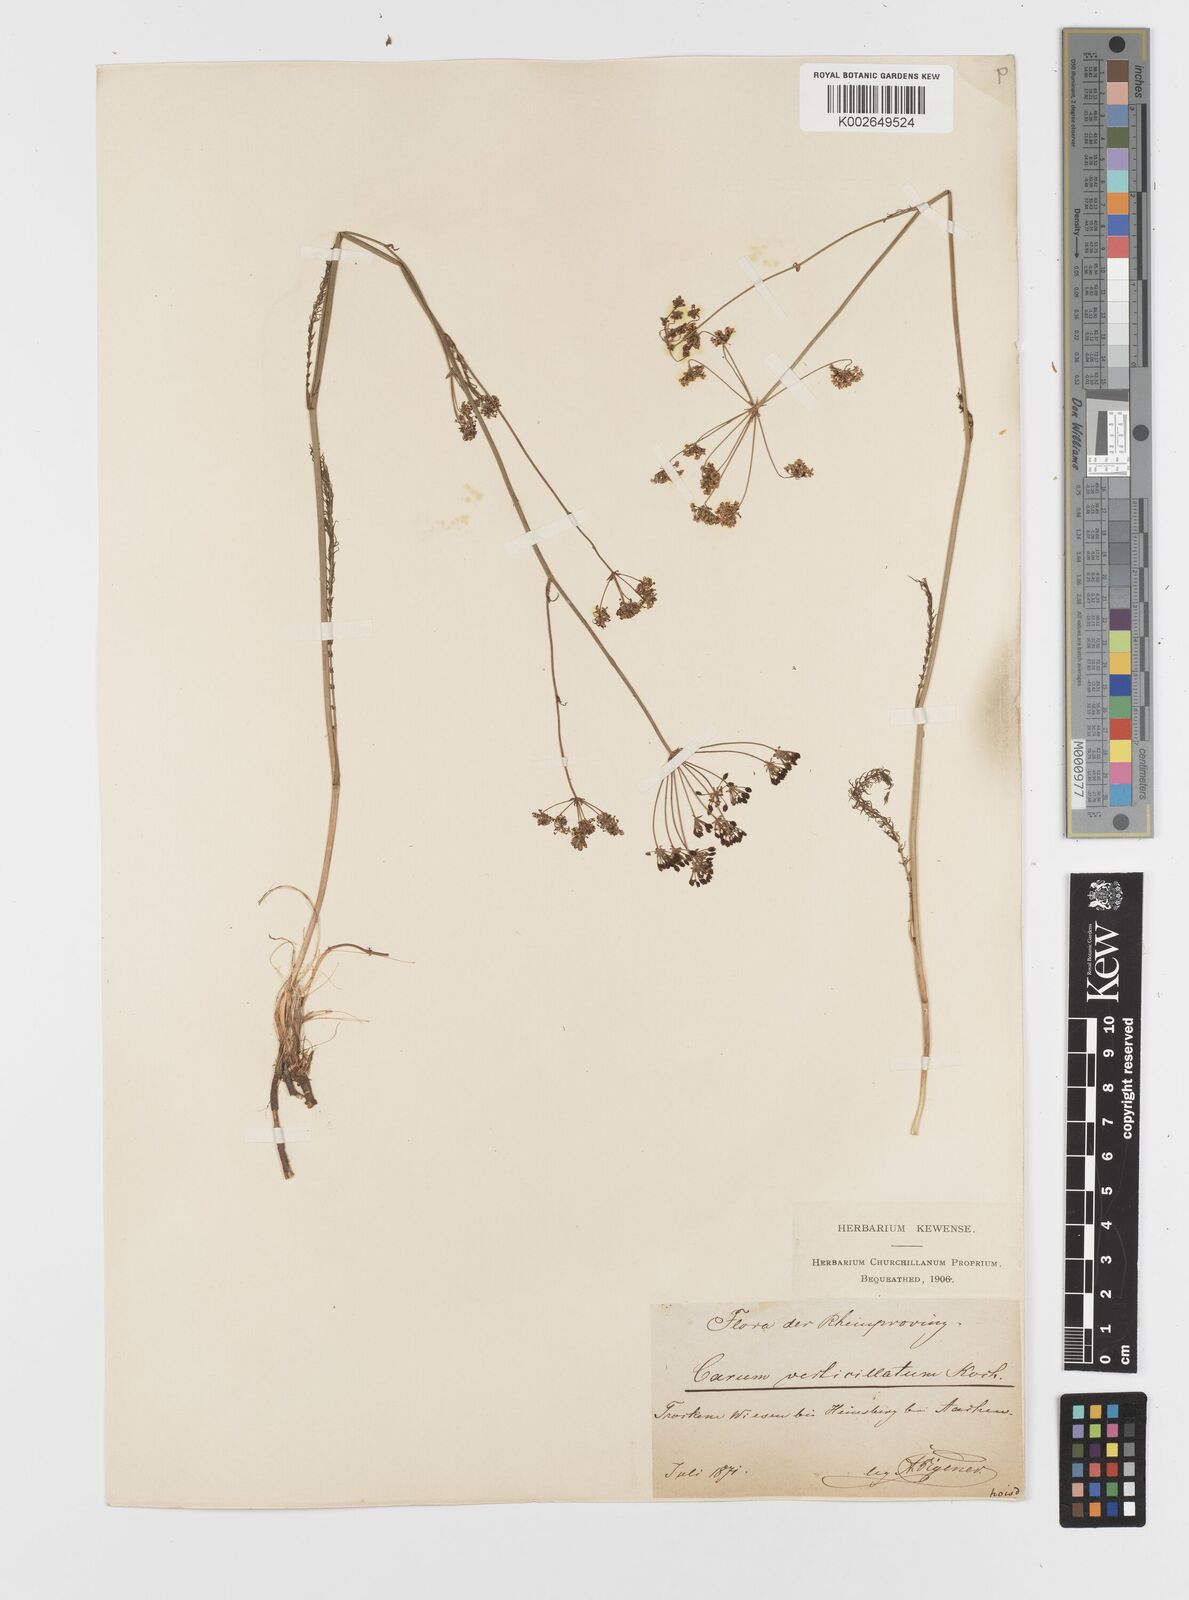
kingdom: Plantae
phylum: Tracheophyta
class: Magnoliopsida
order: Apiales
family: Apiaceae
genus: Trocdaris
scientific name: Trocdaris verticillatum
